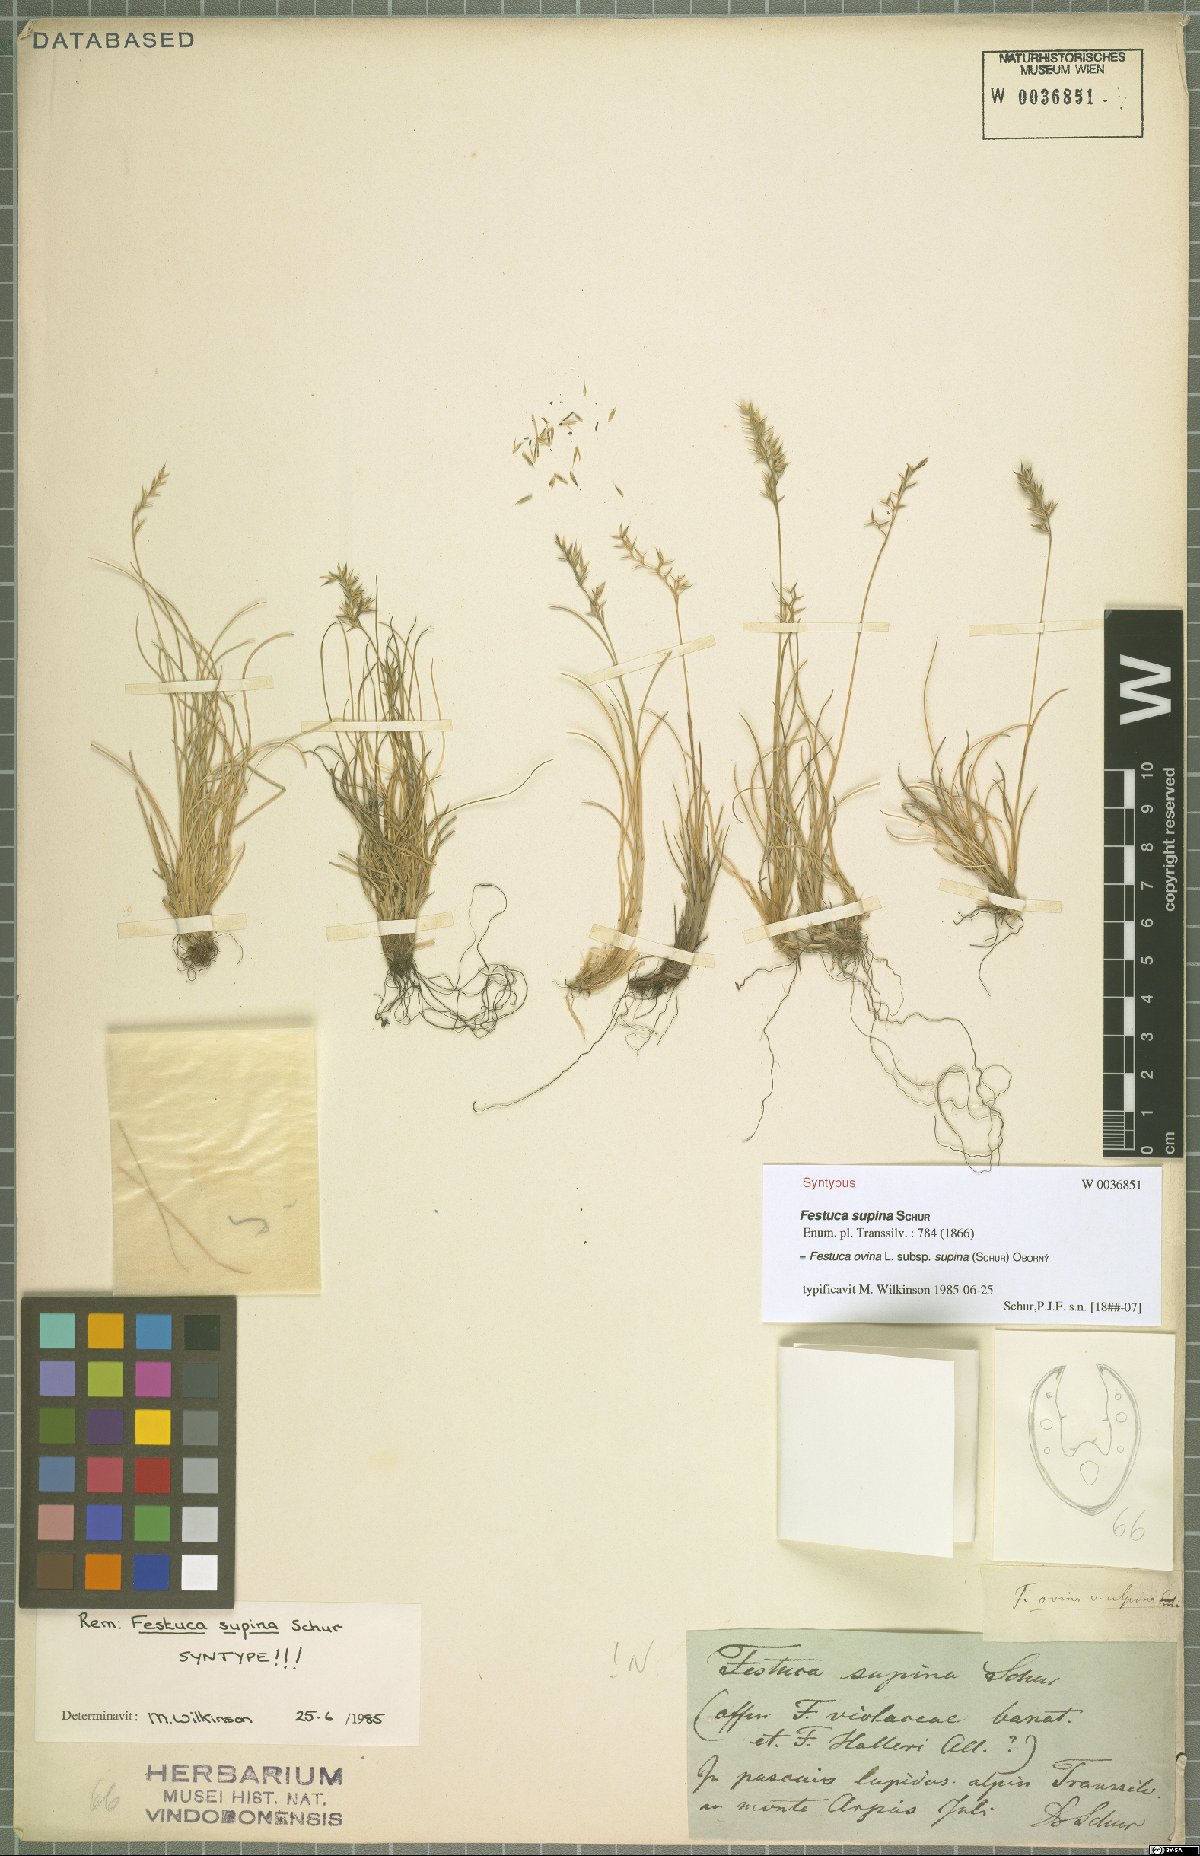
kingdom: Plantae
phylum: Tracheophyta
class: Liliopsida
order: Poales
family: Poaceae
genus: Festuca
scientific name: Festuca airoides
